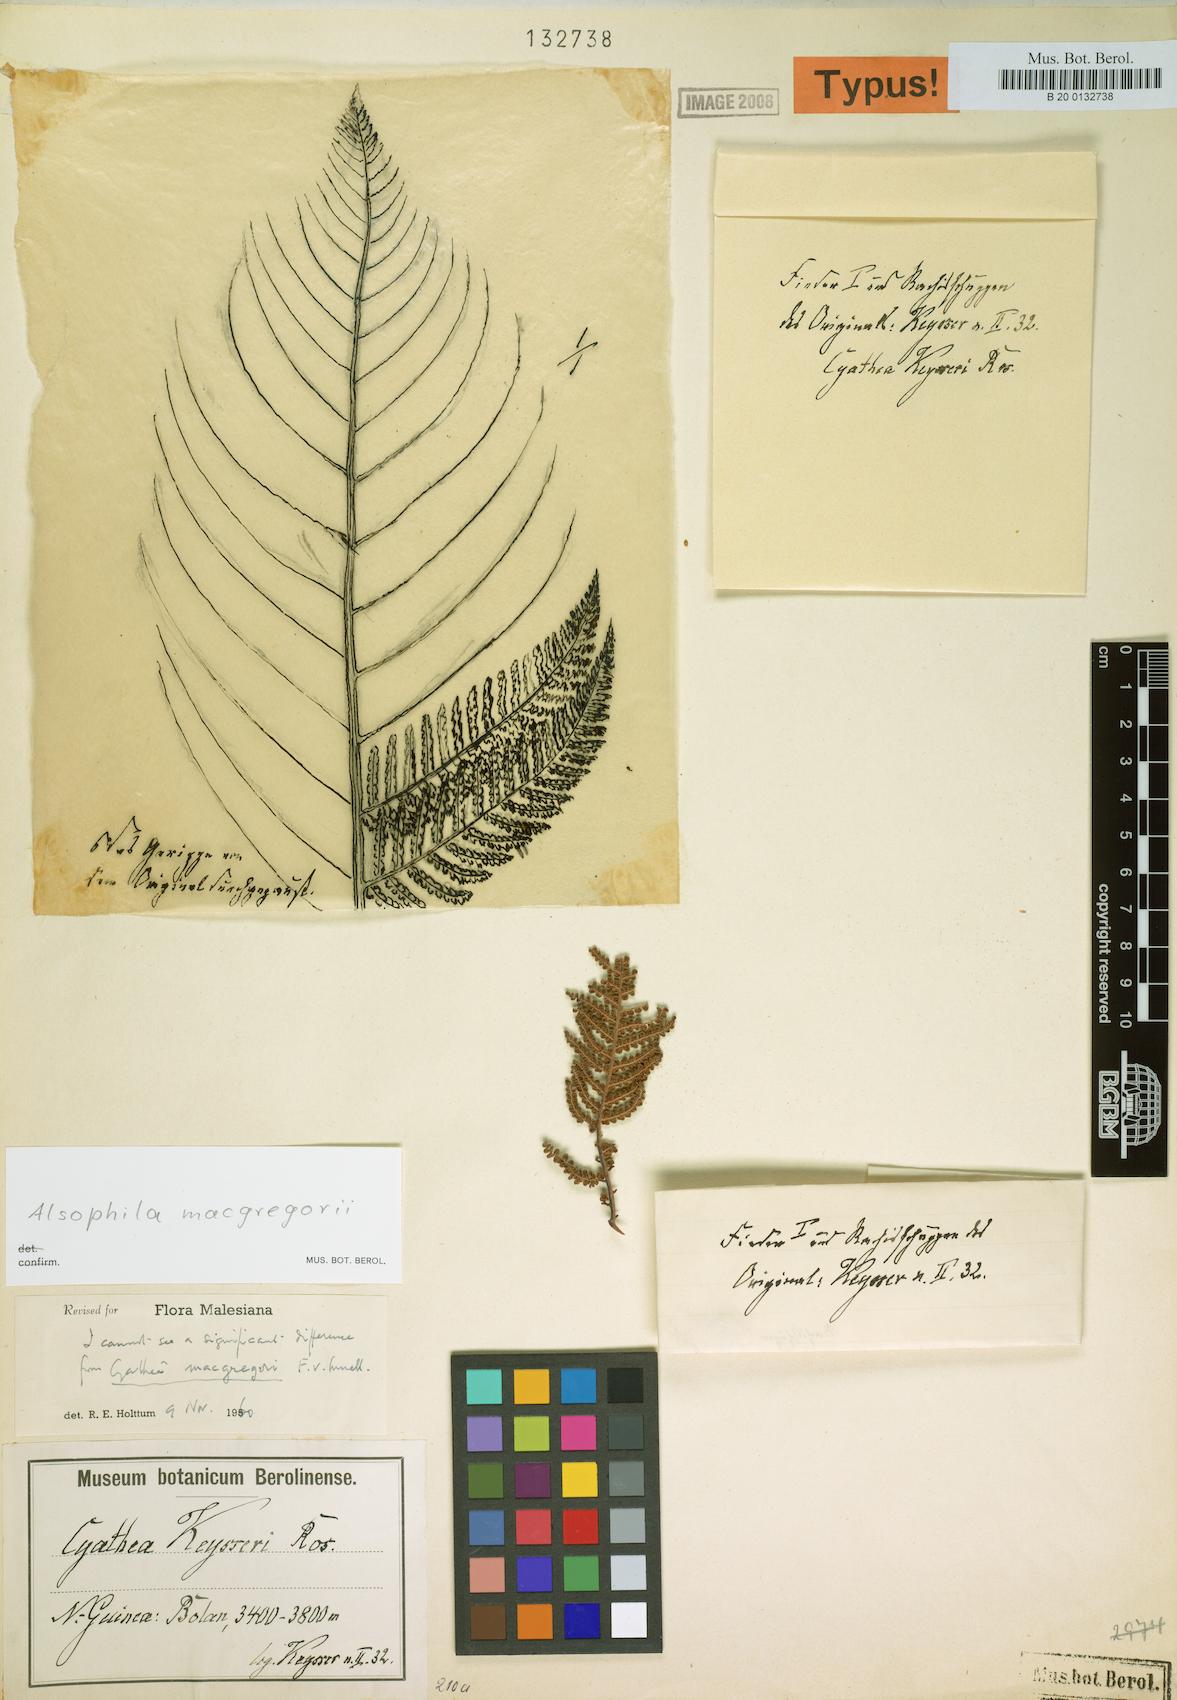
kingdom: Plantae
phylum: Tracheophyta
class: Polypodiopsida
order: Cyatheales
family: Cyatheaceae
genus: Alsophila
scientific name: Alsophila macgregorii
